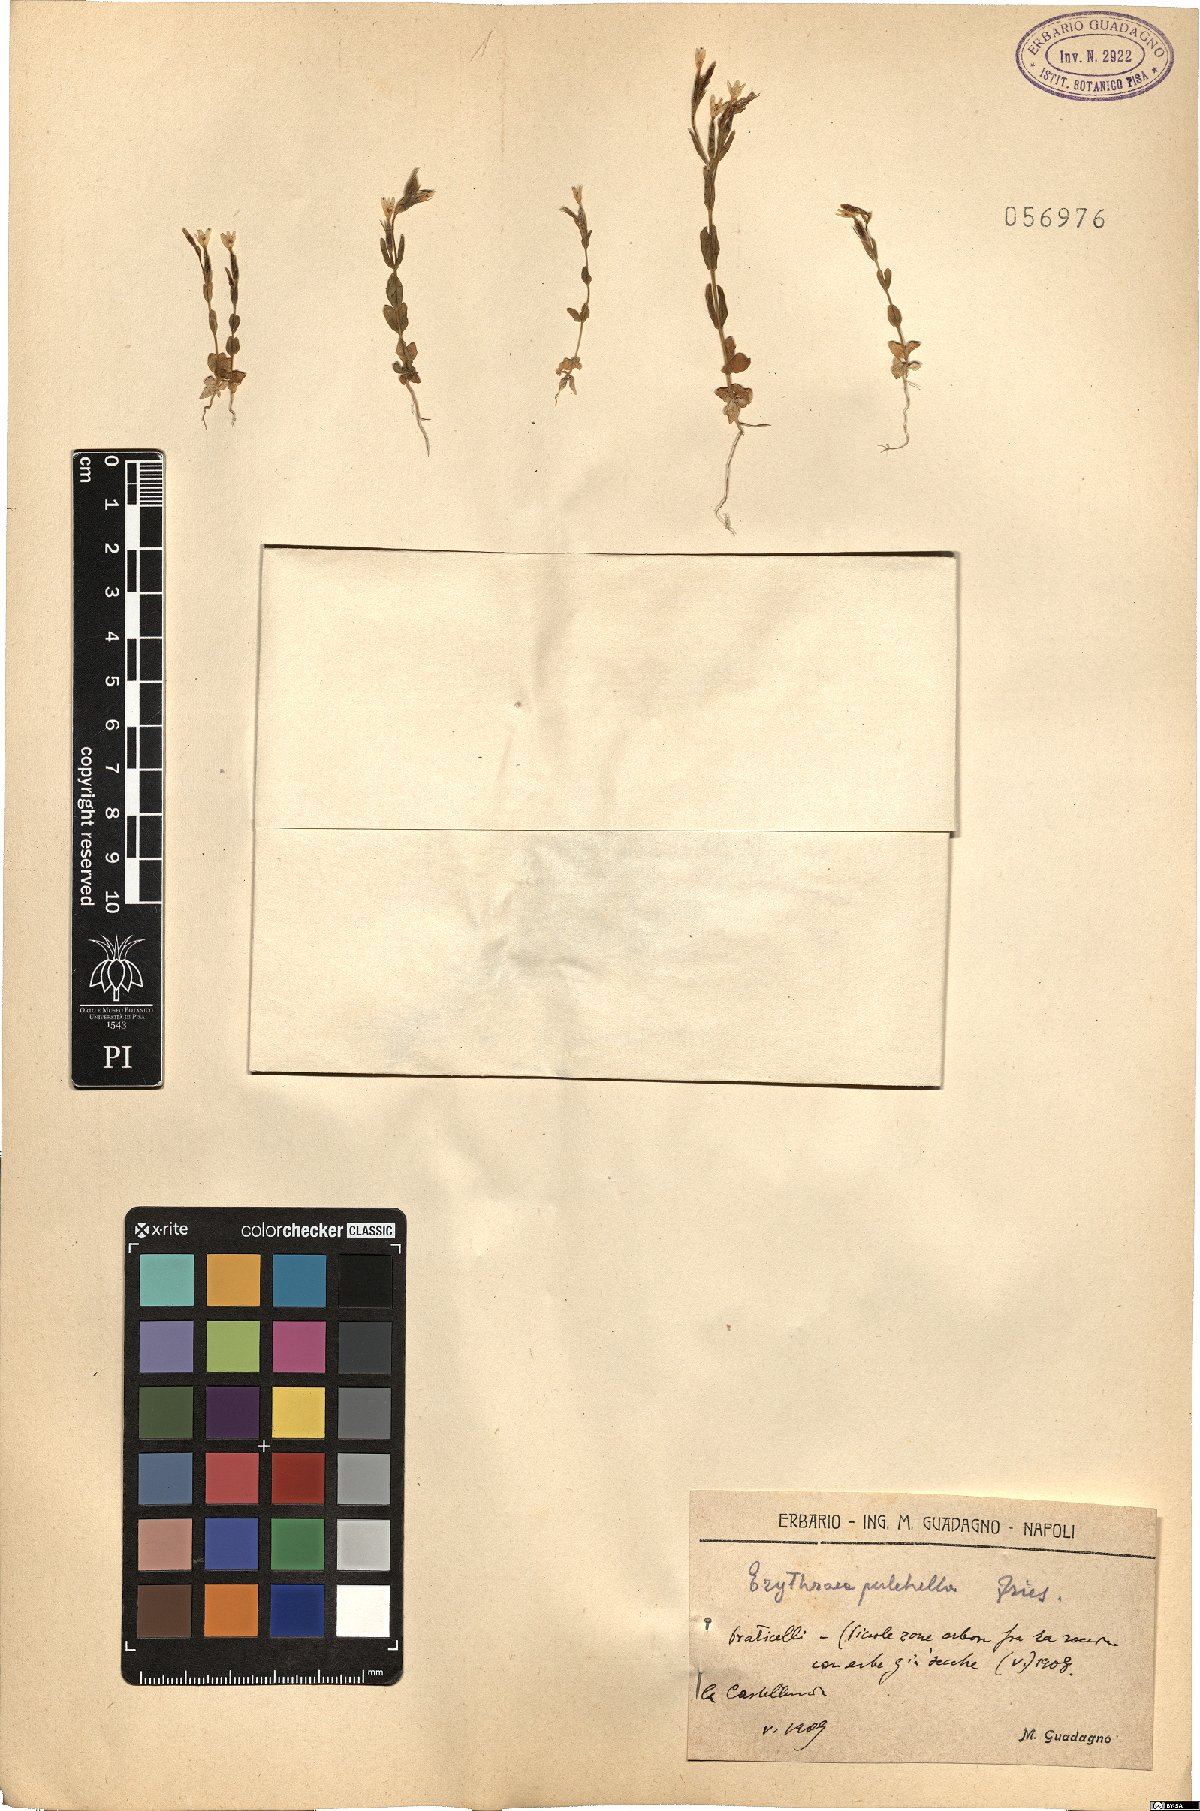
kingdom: Plantae
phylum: Tracheophyta
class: Magnoliopsida
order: Gentianales
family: Gentianaceae
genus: Centaurium
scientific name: Centaurium pulchellum
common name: Lesser centaury
